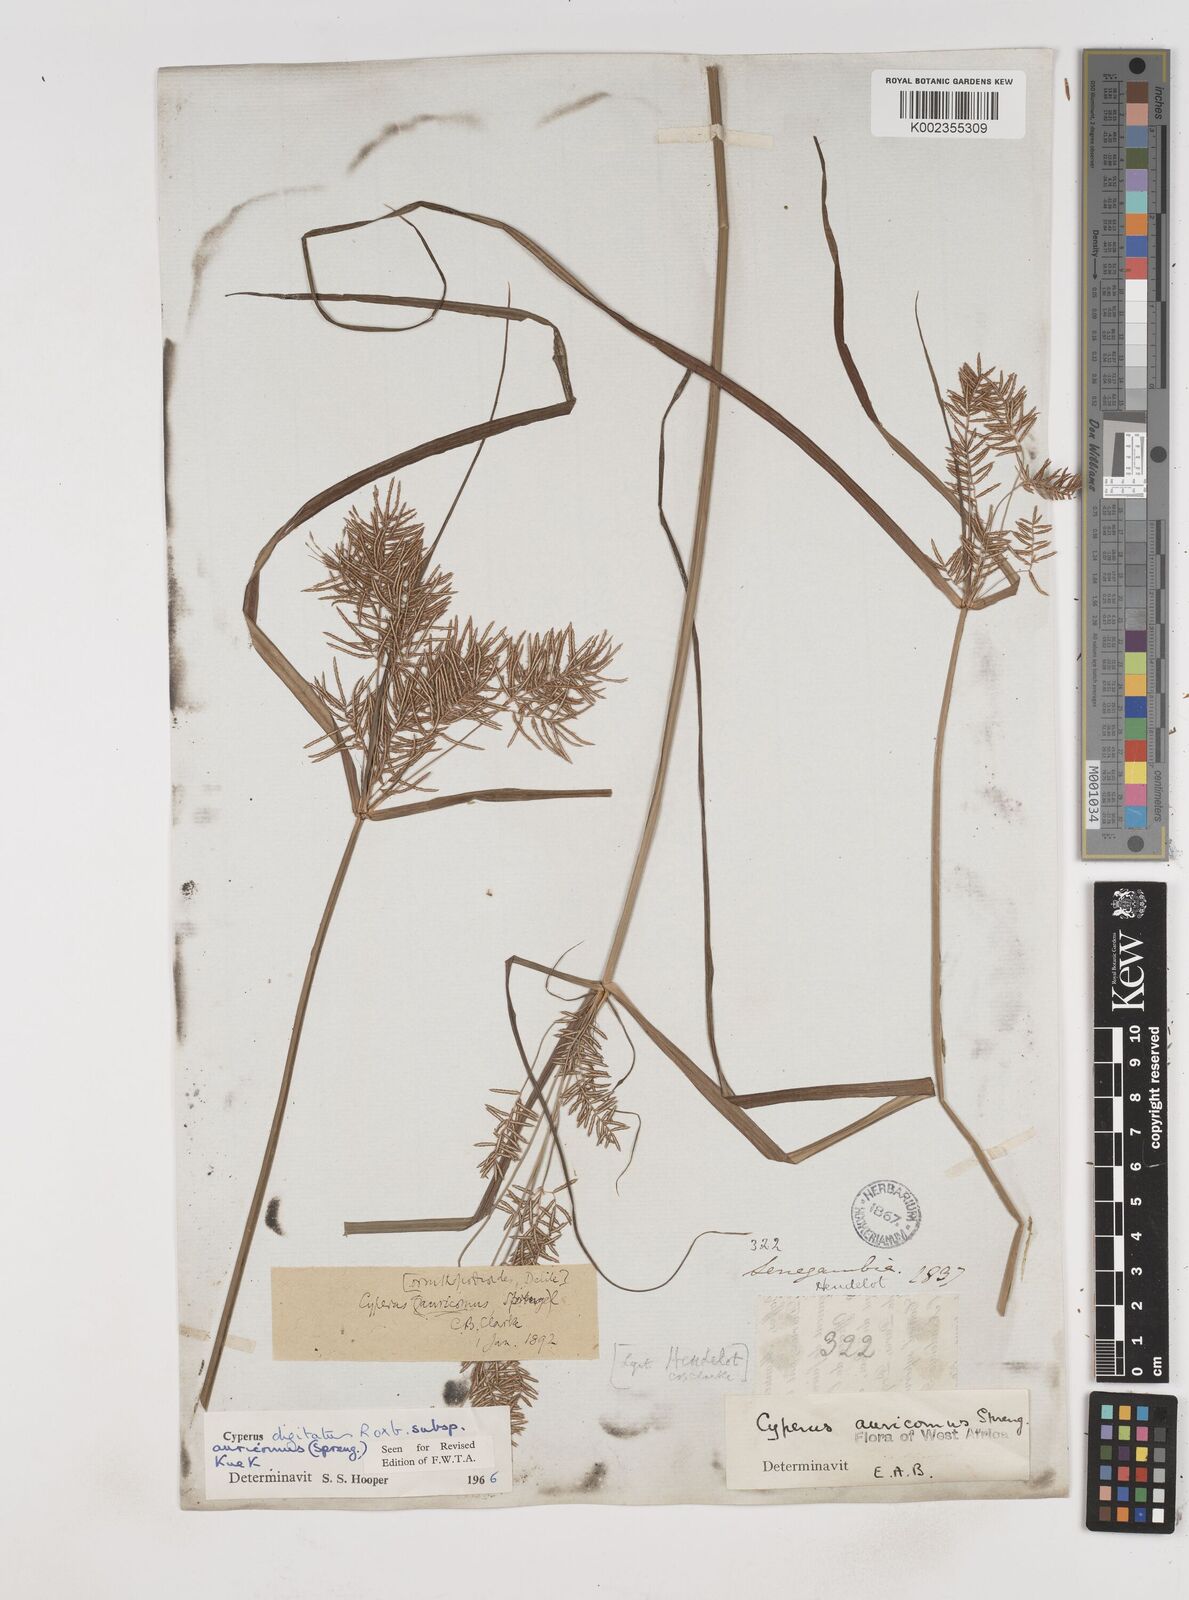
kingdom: Plantae
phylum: Tracheophyta
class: Liliopsida
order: Poales
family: Cyperaceae
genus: Cyperus
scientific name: Cyperus digitatus
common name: Finger flatsedge
